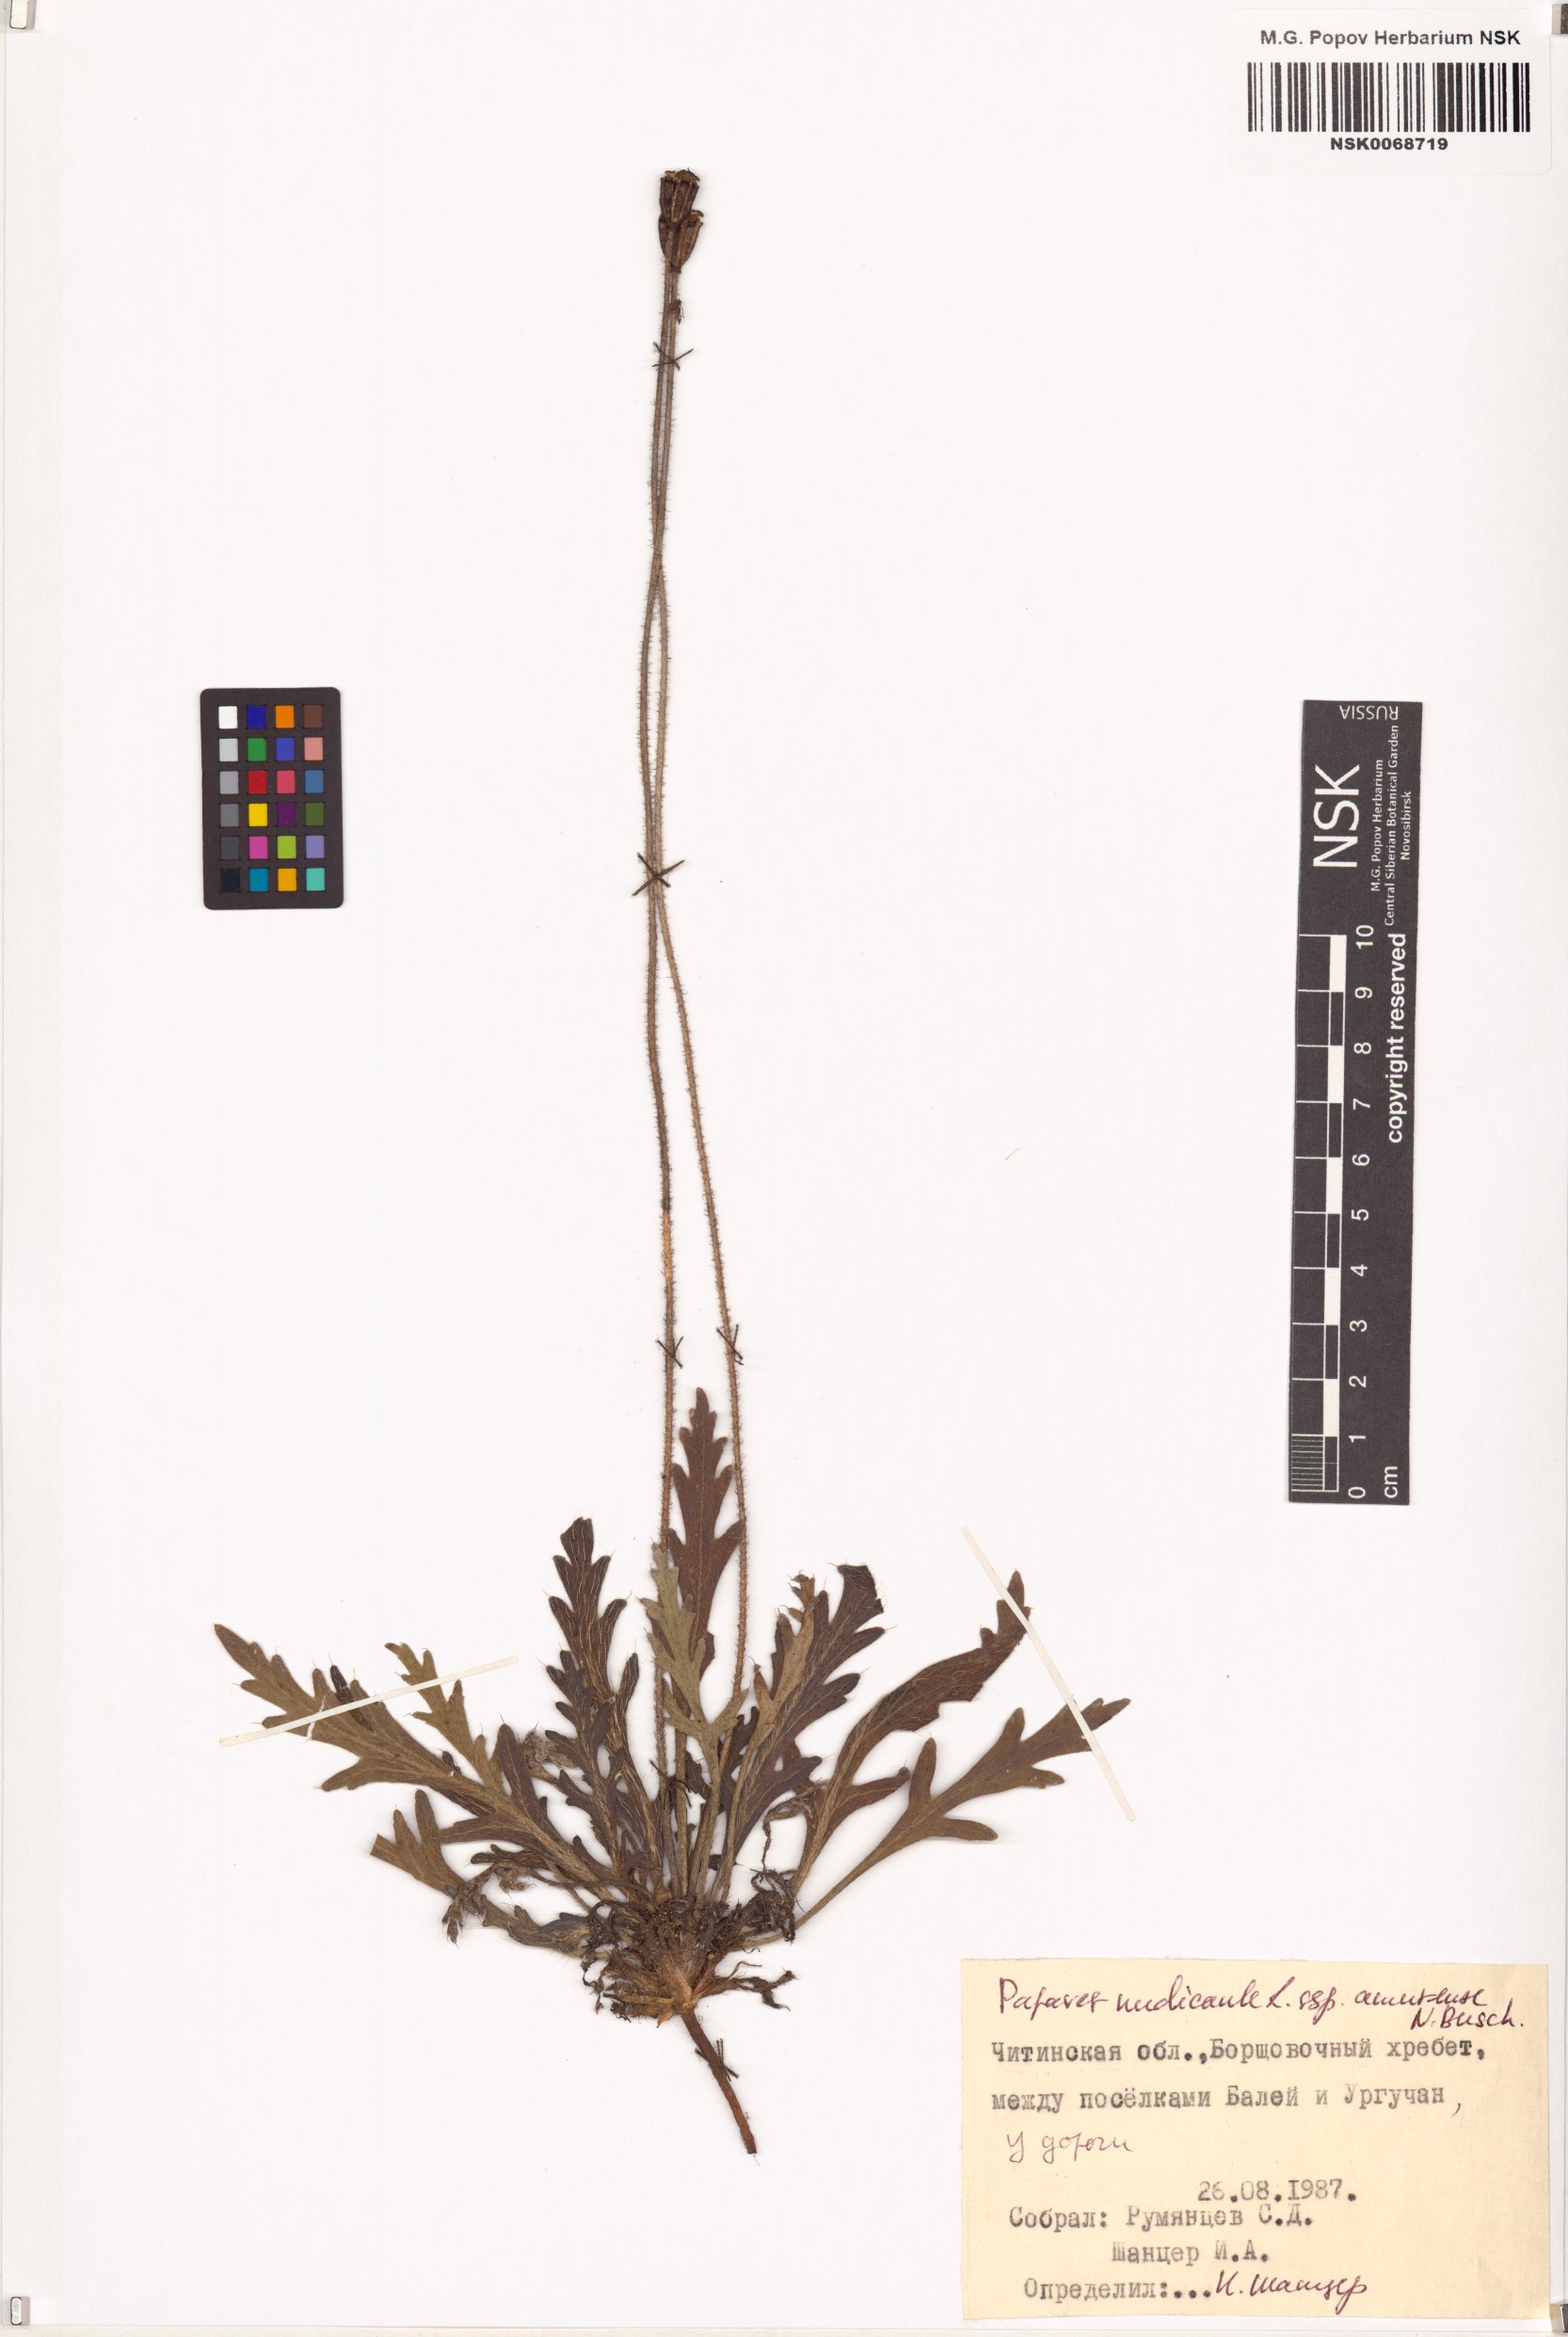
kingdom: Plantae
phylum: Tracheophyta
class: Magnoliopsida
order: Ranunculales
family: Papaveraceae
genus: Papaver
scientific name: Papaver croceum
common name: Siberian poppy
